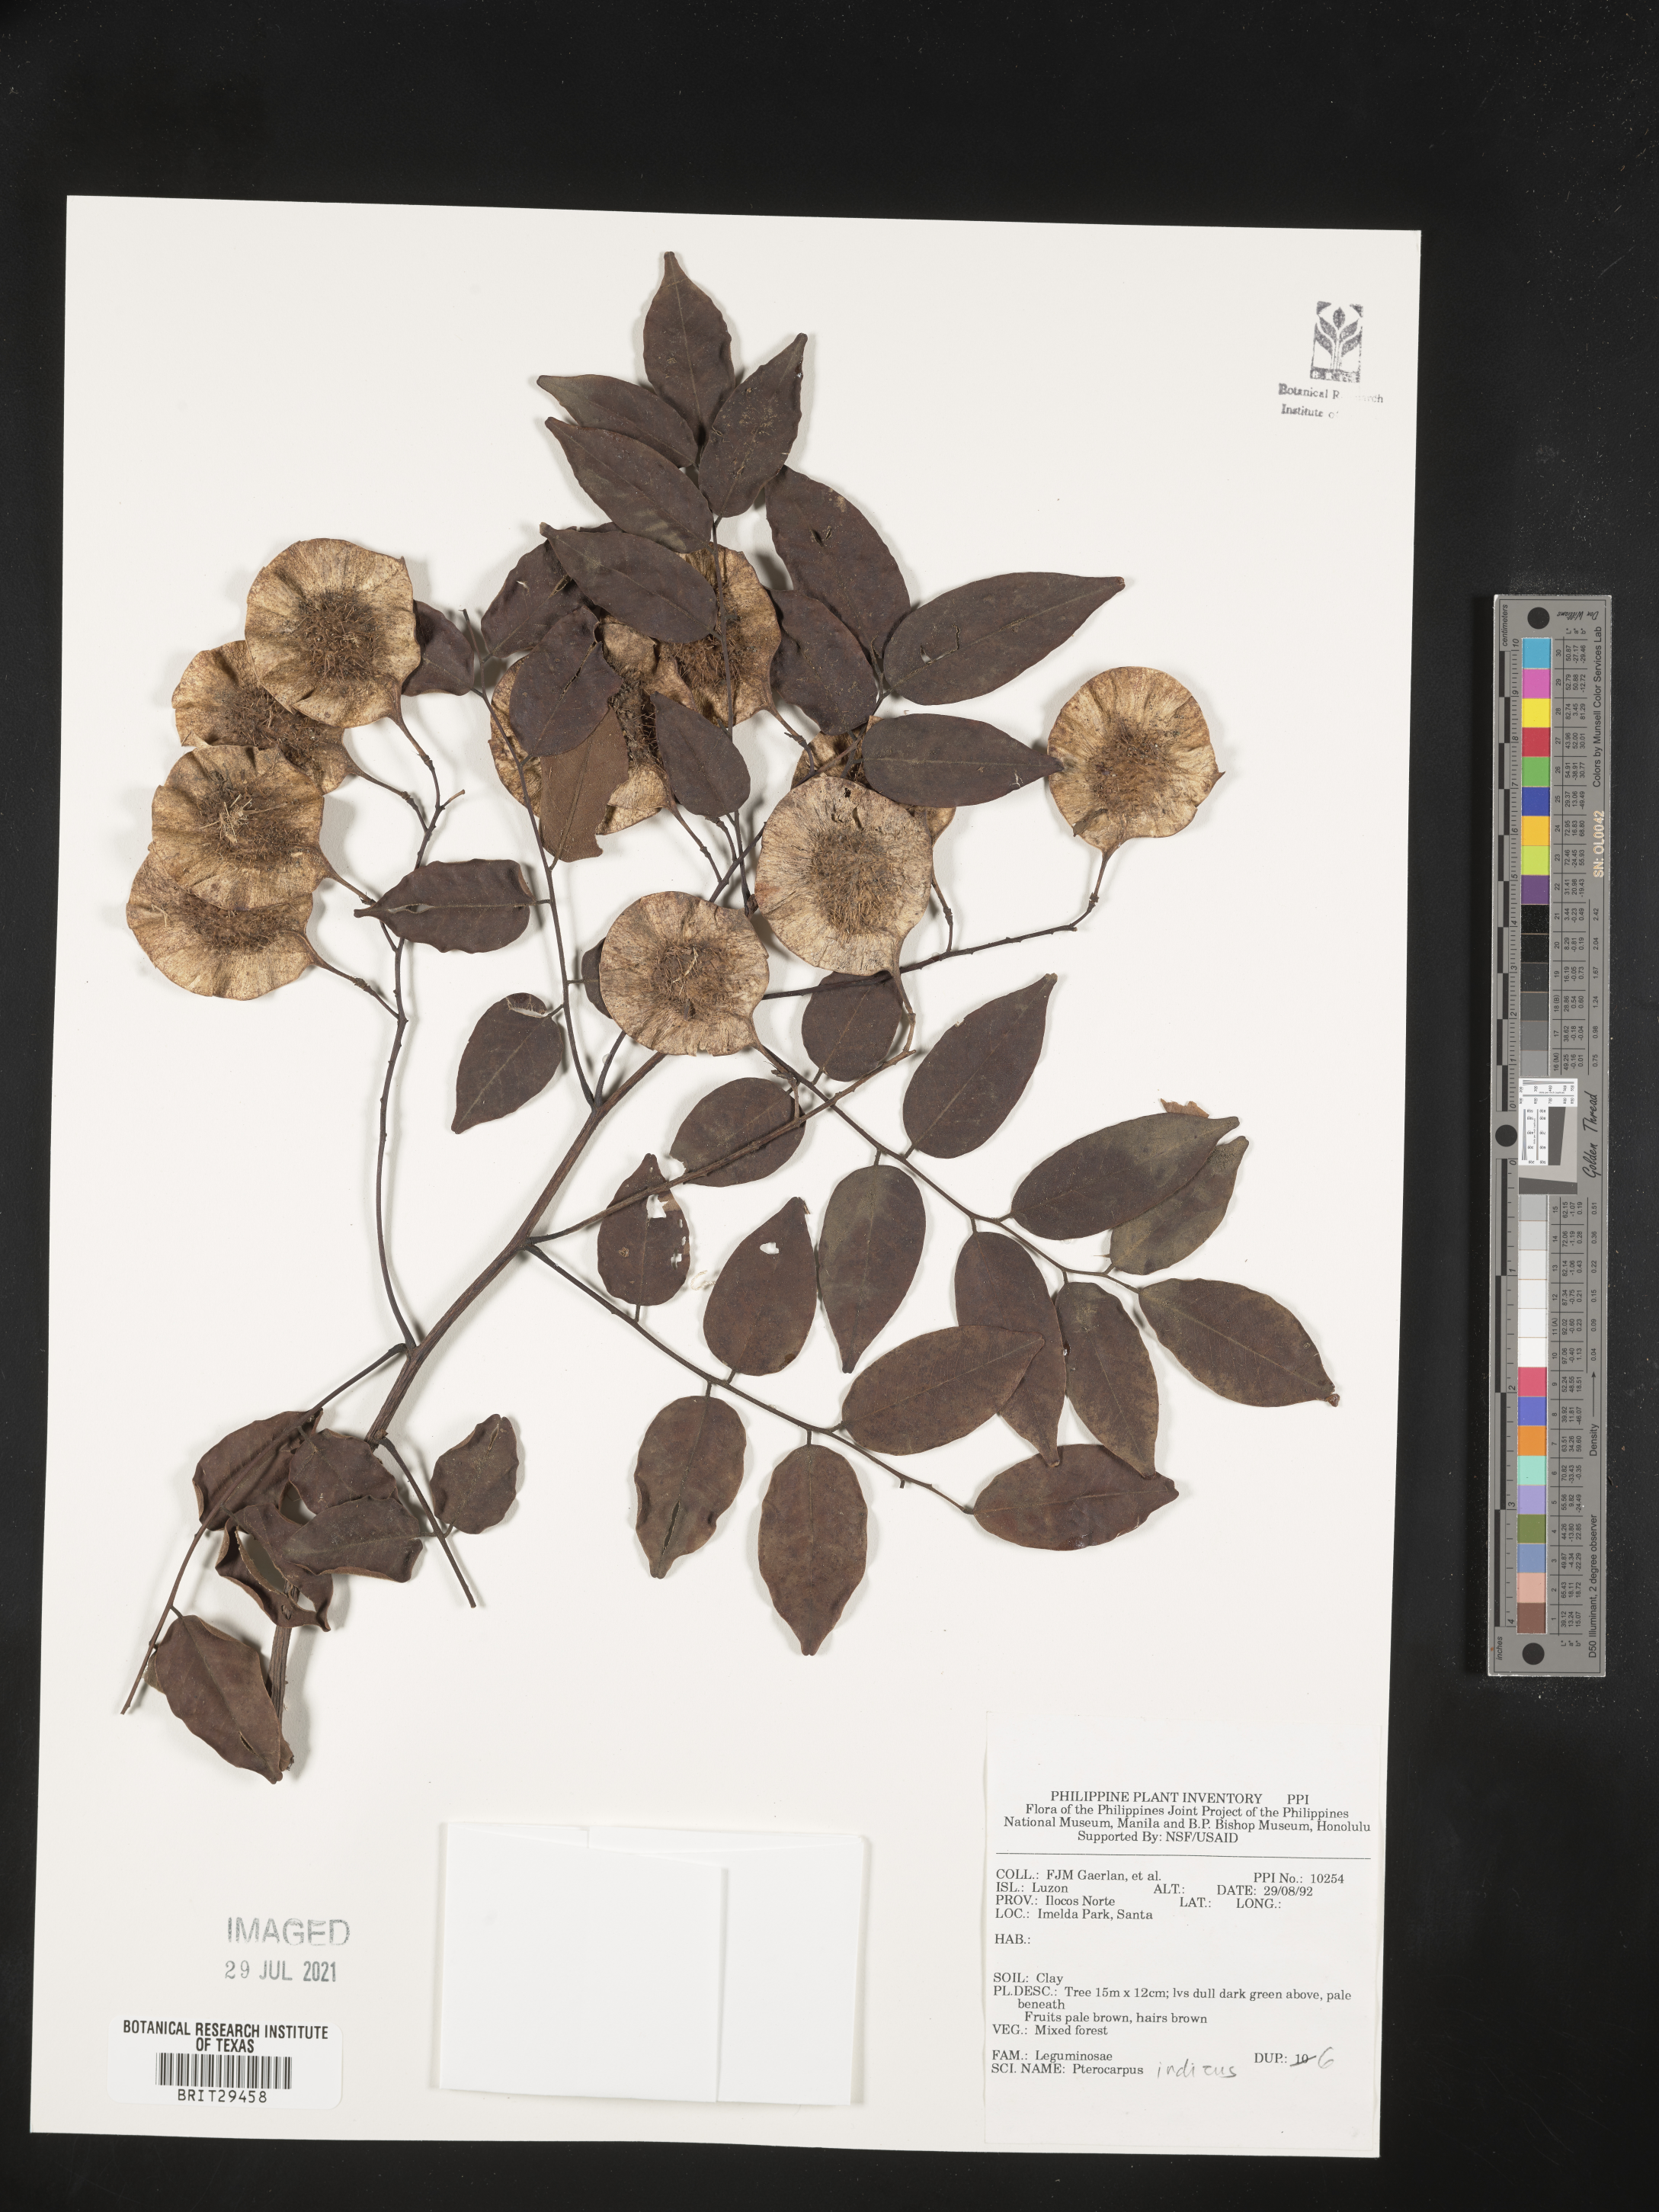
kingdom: Plantae
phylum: Tracheophyta
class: Magnoliopsida
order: Fabales
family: Fabaceae
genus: Pterocarpus
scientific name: Pterocarpus indicus
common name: Burmese rosewood
